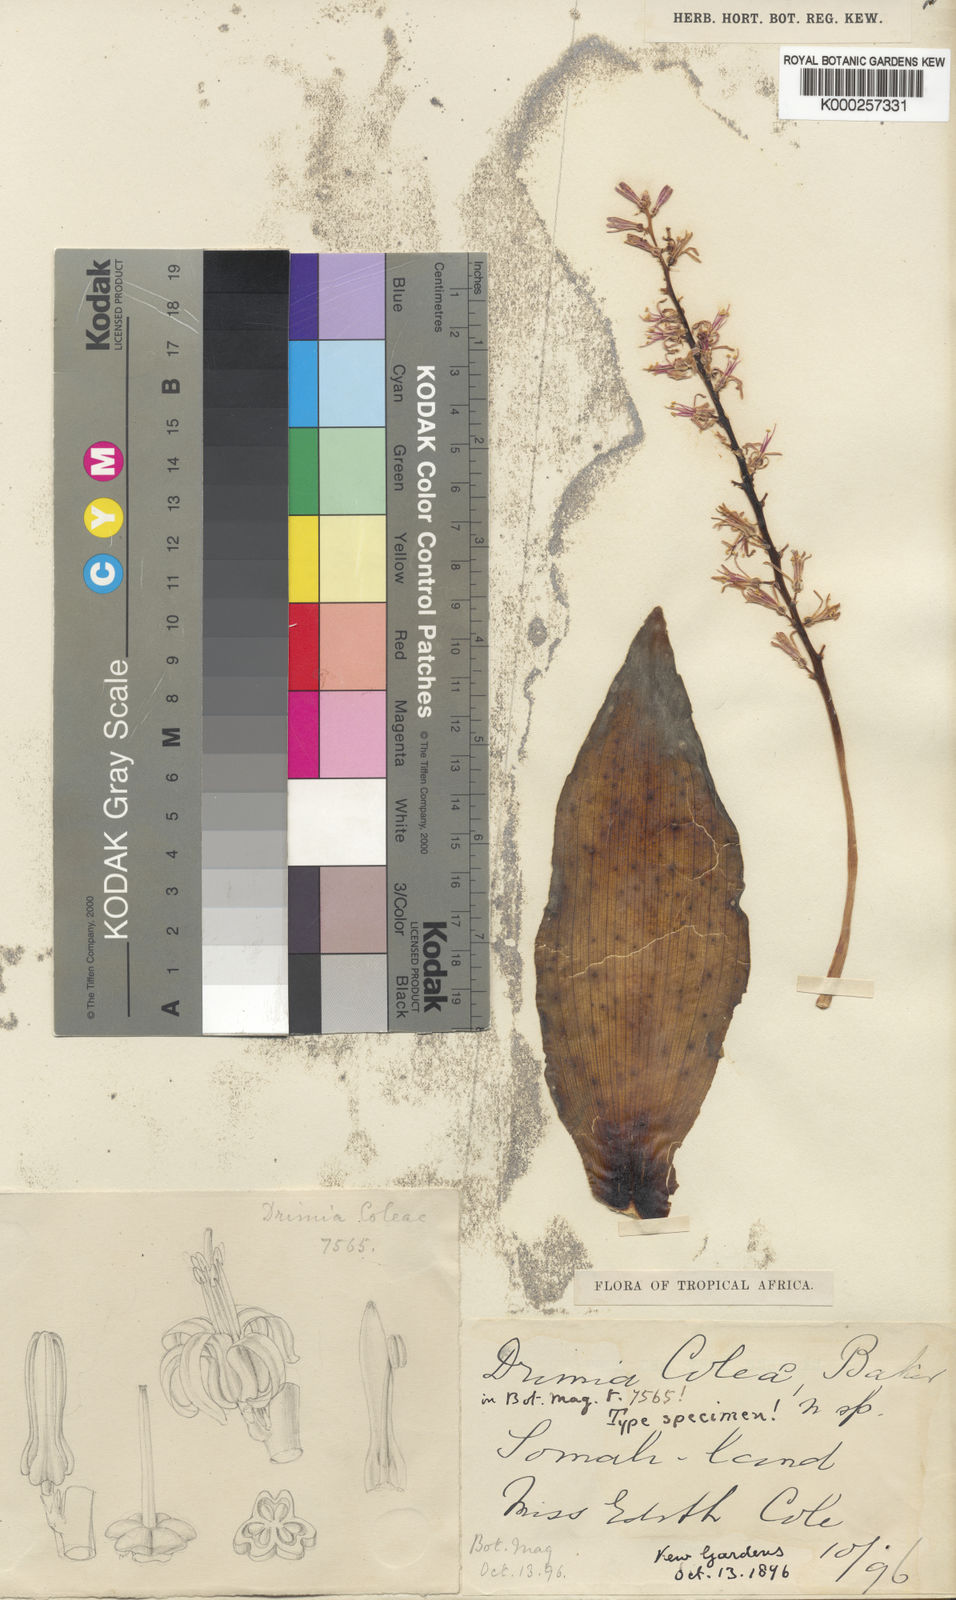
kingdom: Plantae
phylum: Tracheophyta
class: Liliopsida
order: Asparagales
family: Asparagaceae
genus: Ledebouria
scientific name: Ledebouria somaliensis
